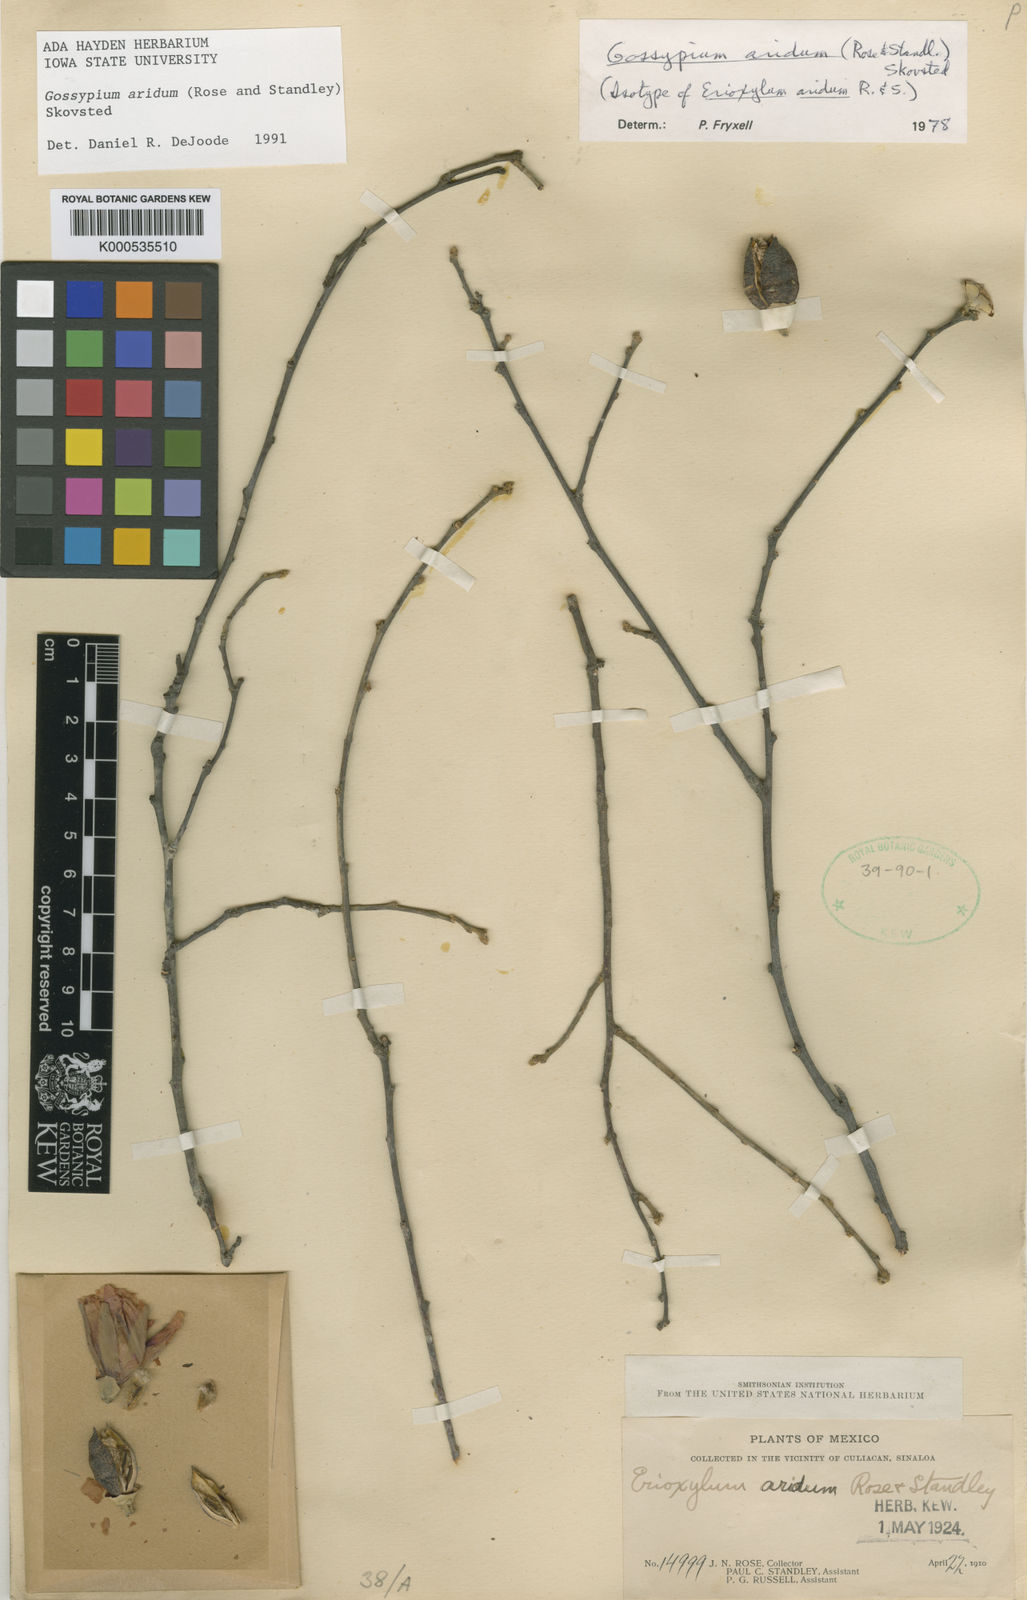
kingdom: Plantae
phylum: Tracheophyta
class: Magnoliopsida
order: Malvales
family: Malvaceae
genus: Gossypium
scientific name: Gossypium aridum
